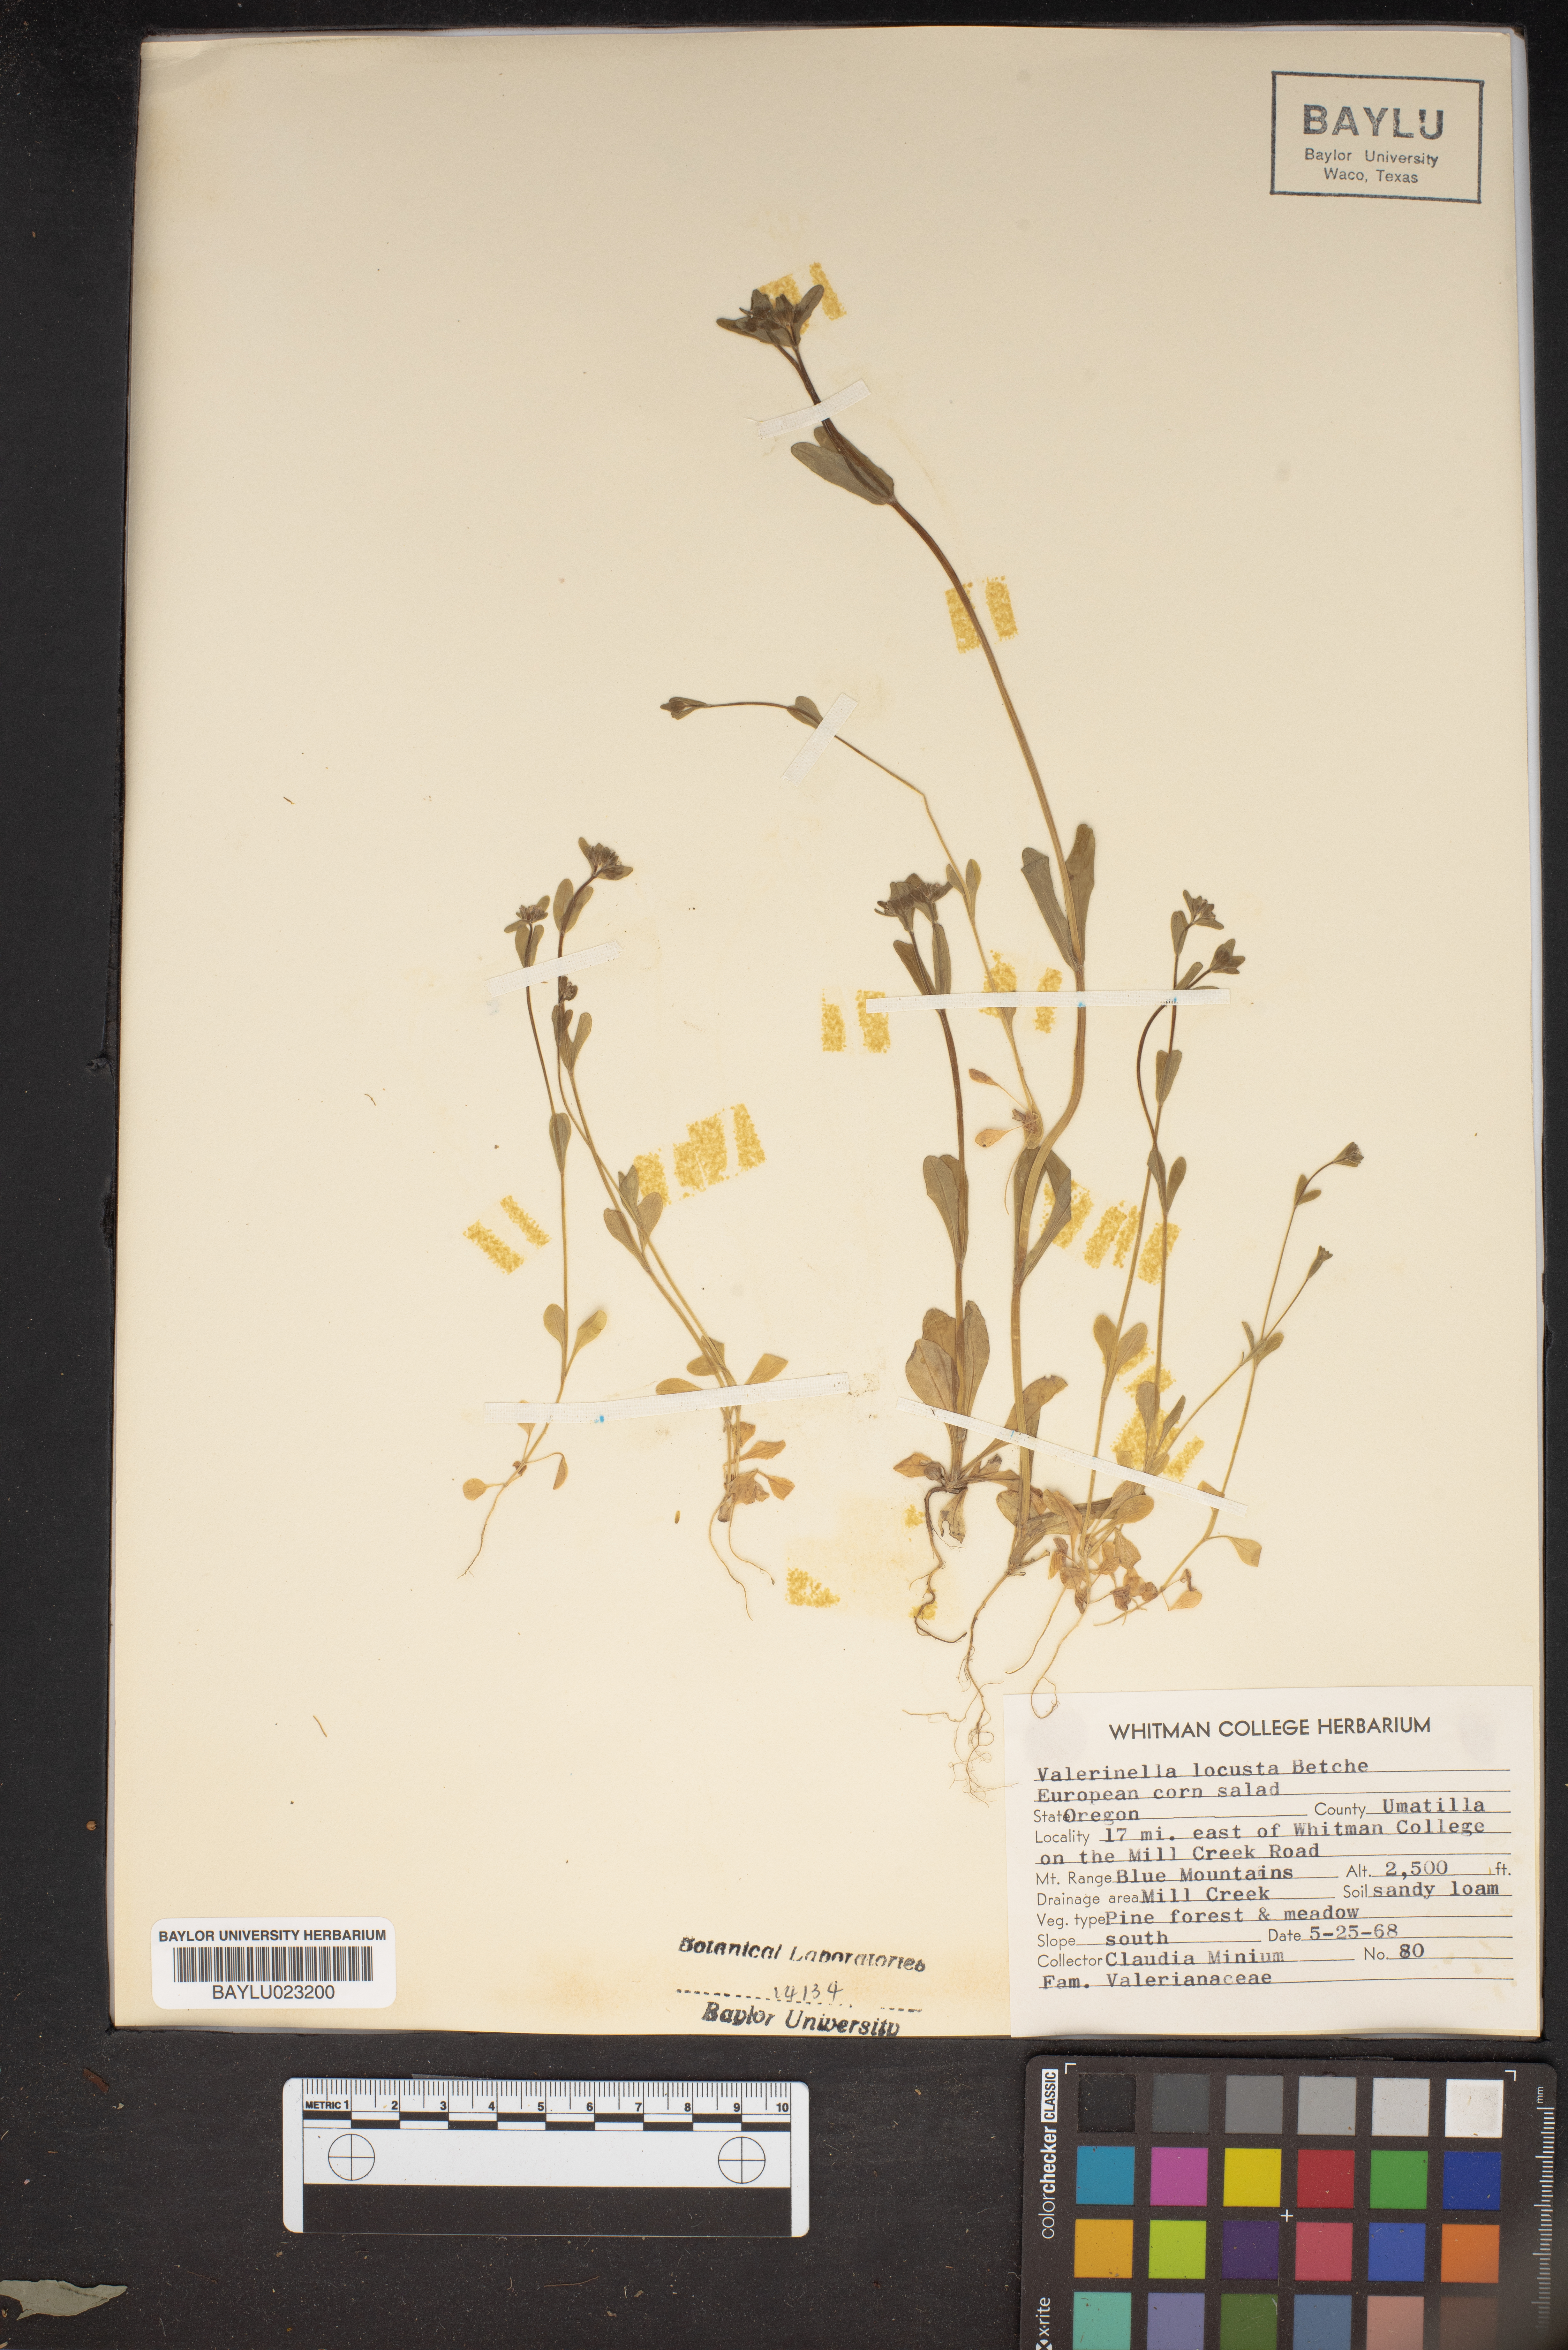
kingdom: Plantae
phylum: Tracheophyta
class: Magnoliopsida
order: Dipsacales
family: Caprifoliaceae
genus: Valerianella
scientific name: Valerianella locusta
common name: Common cornsalad
